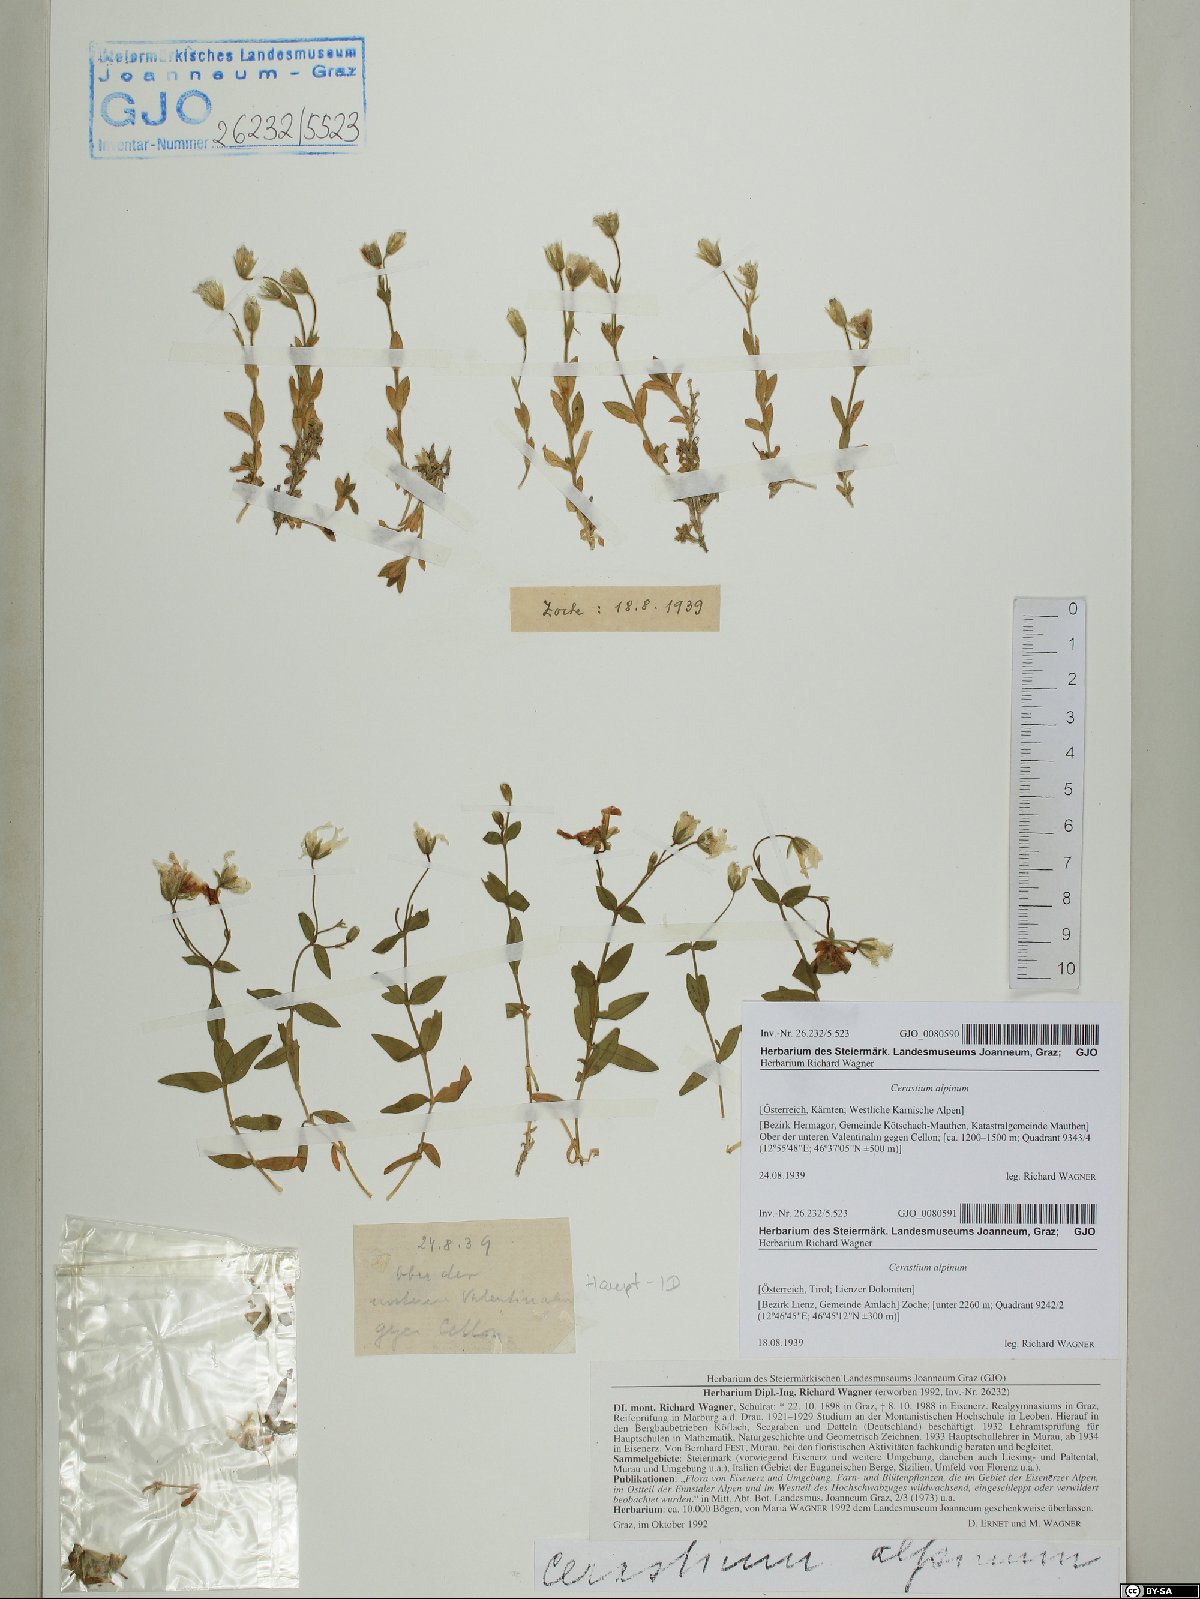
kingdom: Plantae
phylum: Tracheophyta
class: Magnoliopsida
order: Caryophyllales
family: Caryophyllaceae
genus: Cerastium
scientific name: Cerastium alpinum
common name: Alpine mouse-ear
